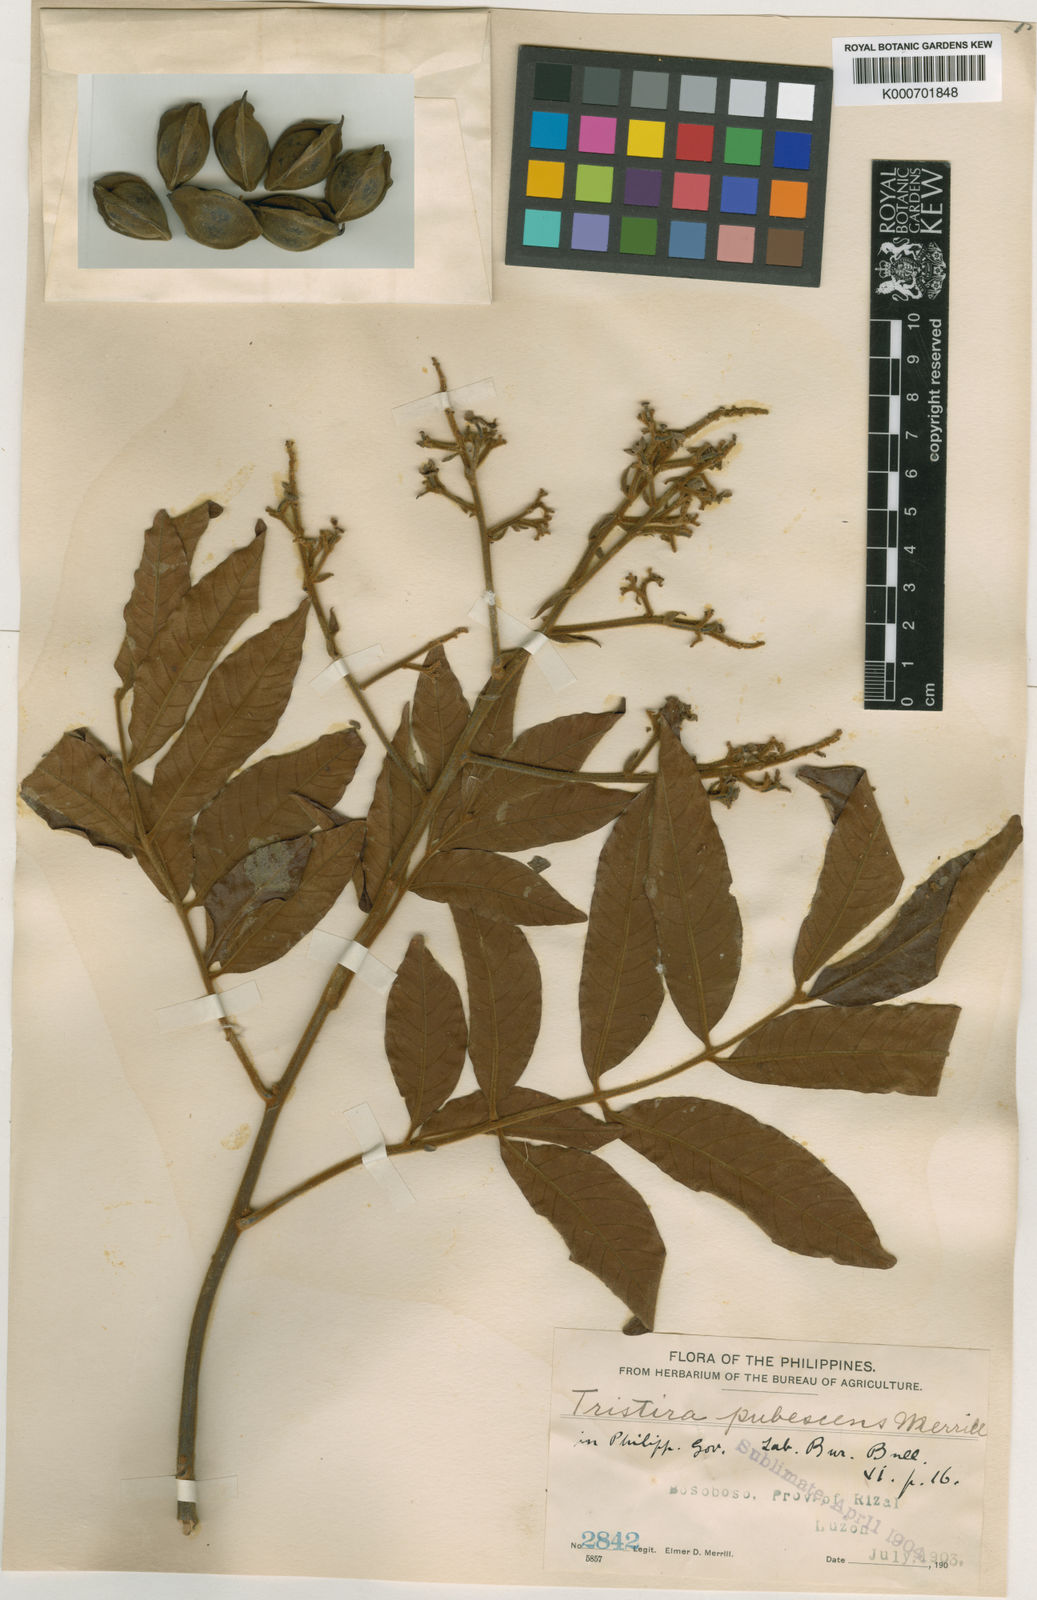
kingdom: Plantae
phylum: Tracheophyta
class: Magnoliopsida
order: Sapindales
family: Sapindaceae
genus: Tristira
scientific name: Tristira triptera
